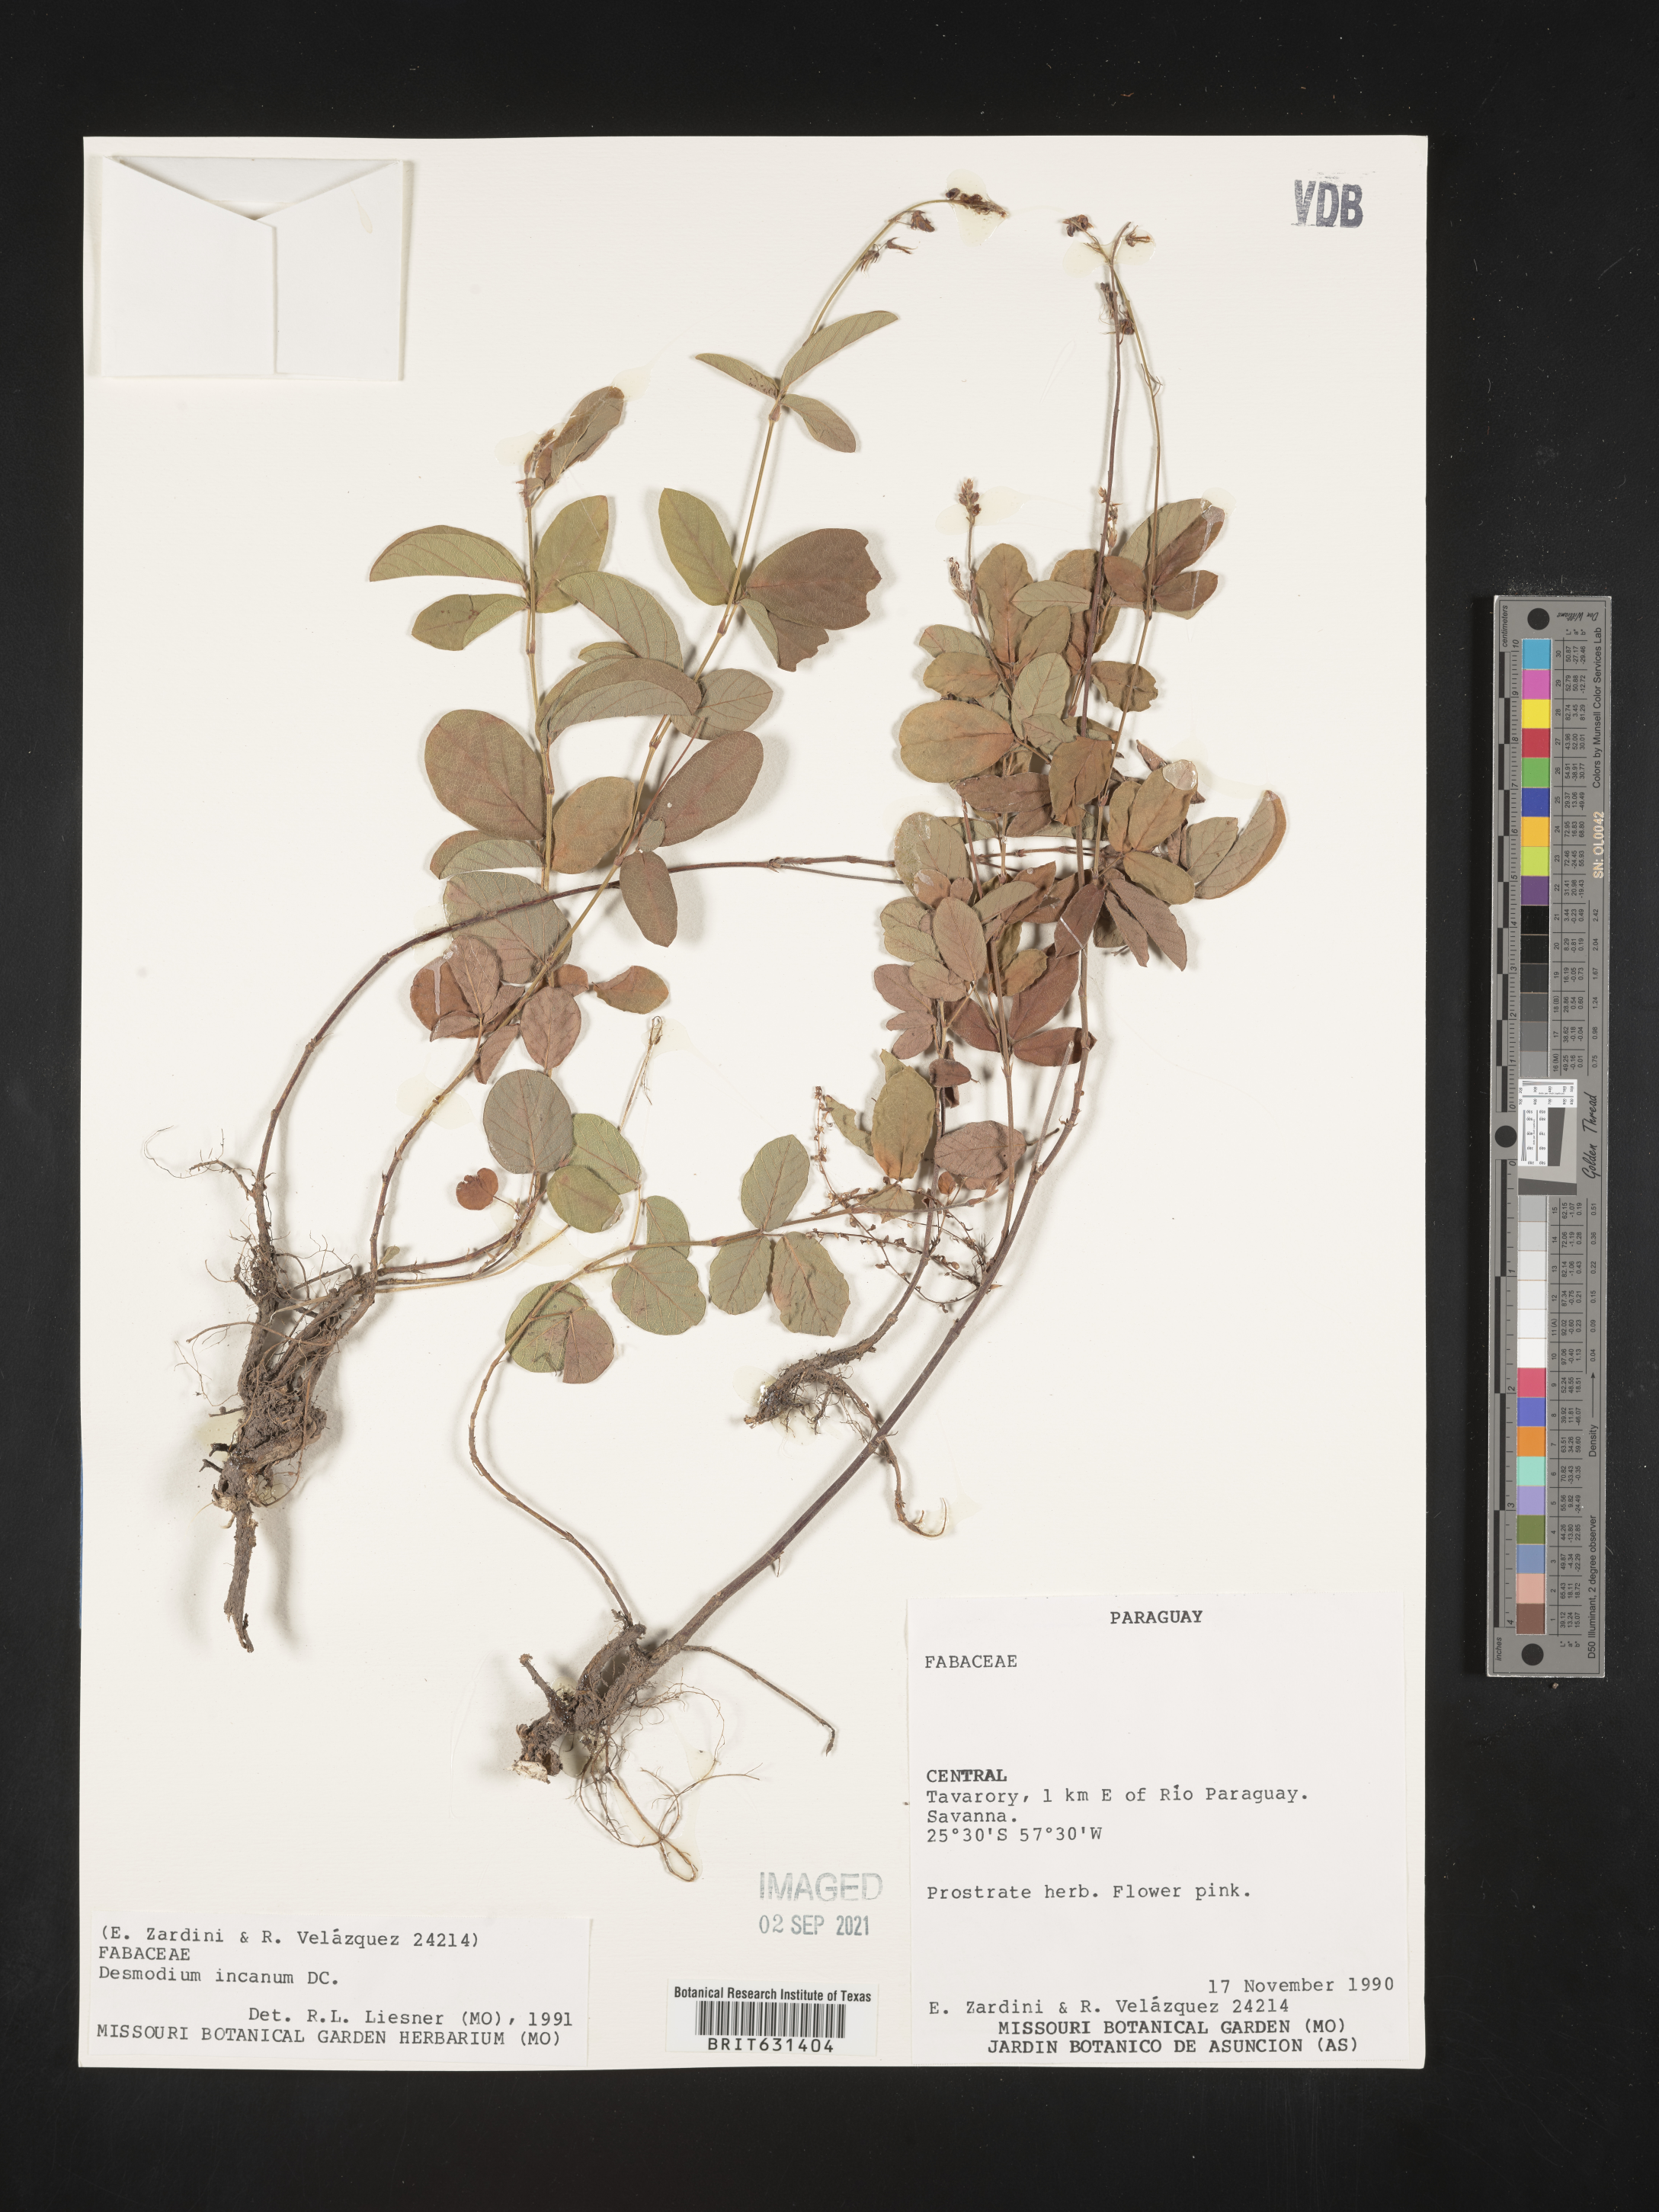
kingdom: Plantae
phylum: Tracheophyta
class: Magnoliopsida
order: Fabales
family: Fabaceae
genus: Desmodium
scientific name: Desmodium incanum
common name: Tickclover
